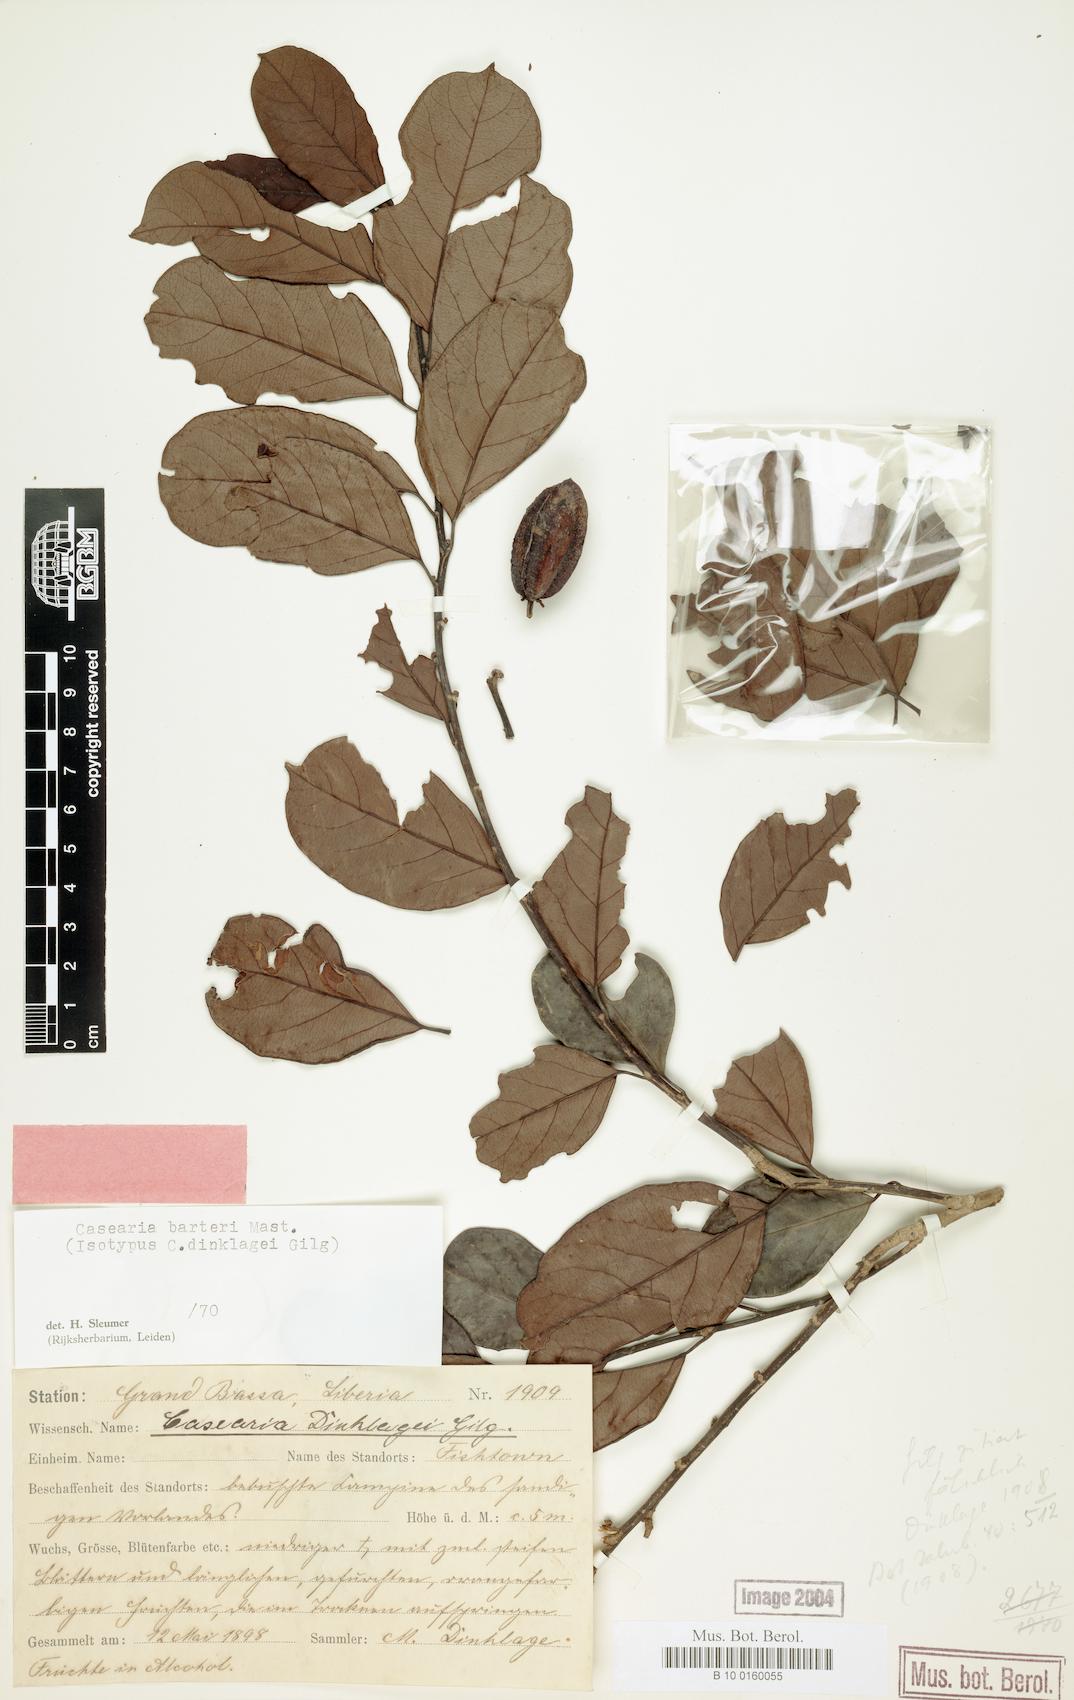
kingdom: Plantae
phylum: Tracheophyta
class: Magnoliopsida
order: Malpighiales
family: Salicaceae
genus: Casearia
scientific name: Casearia barteri
